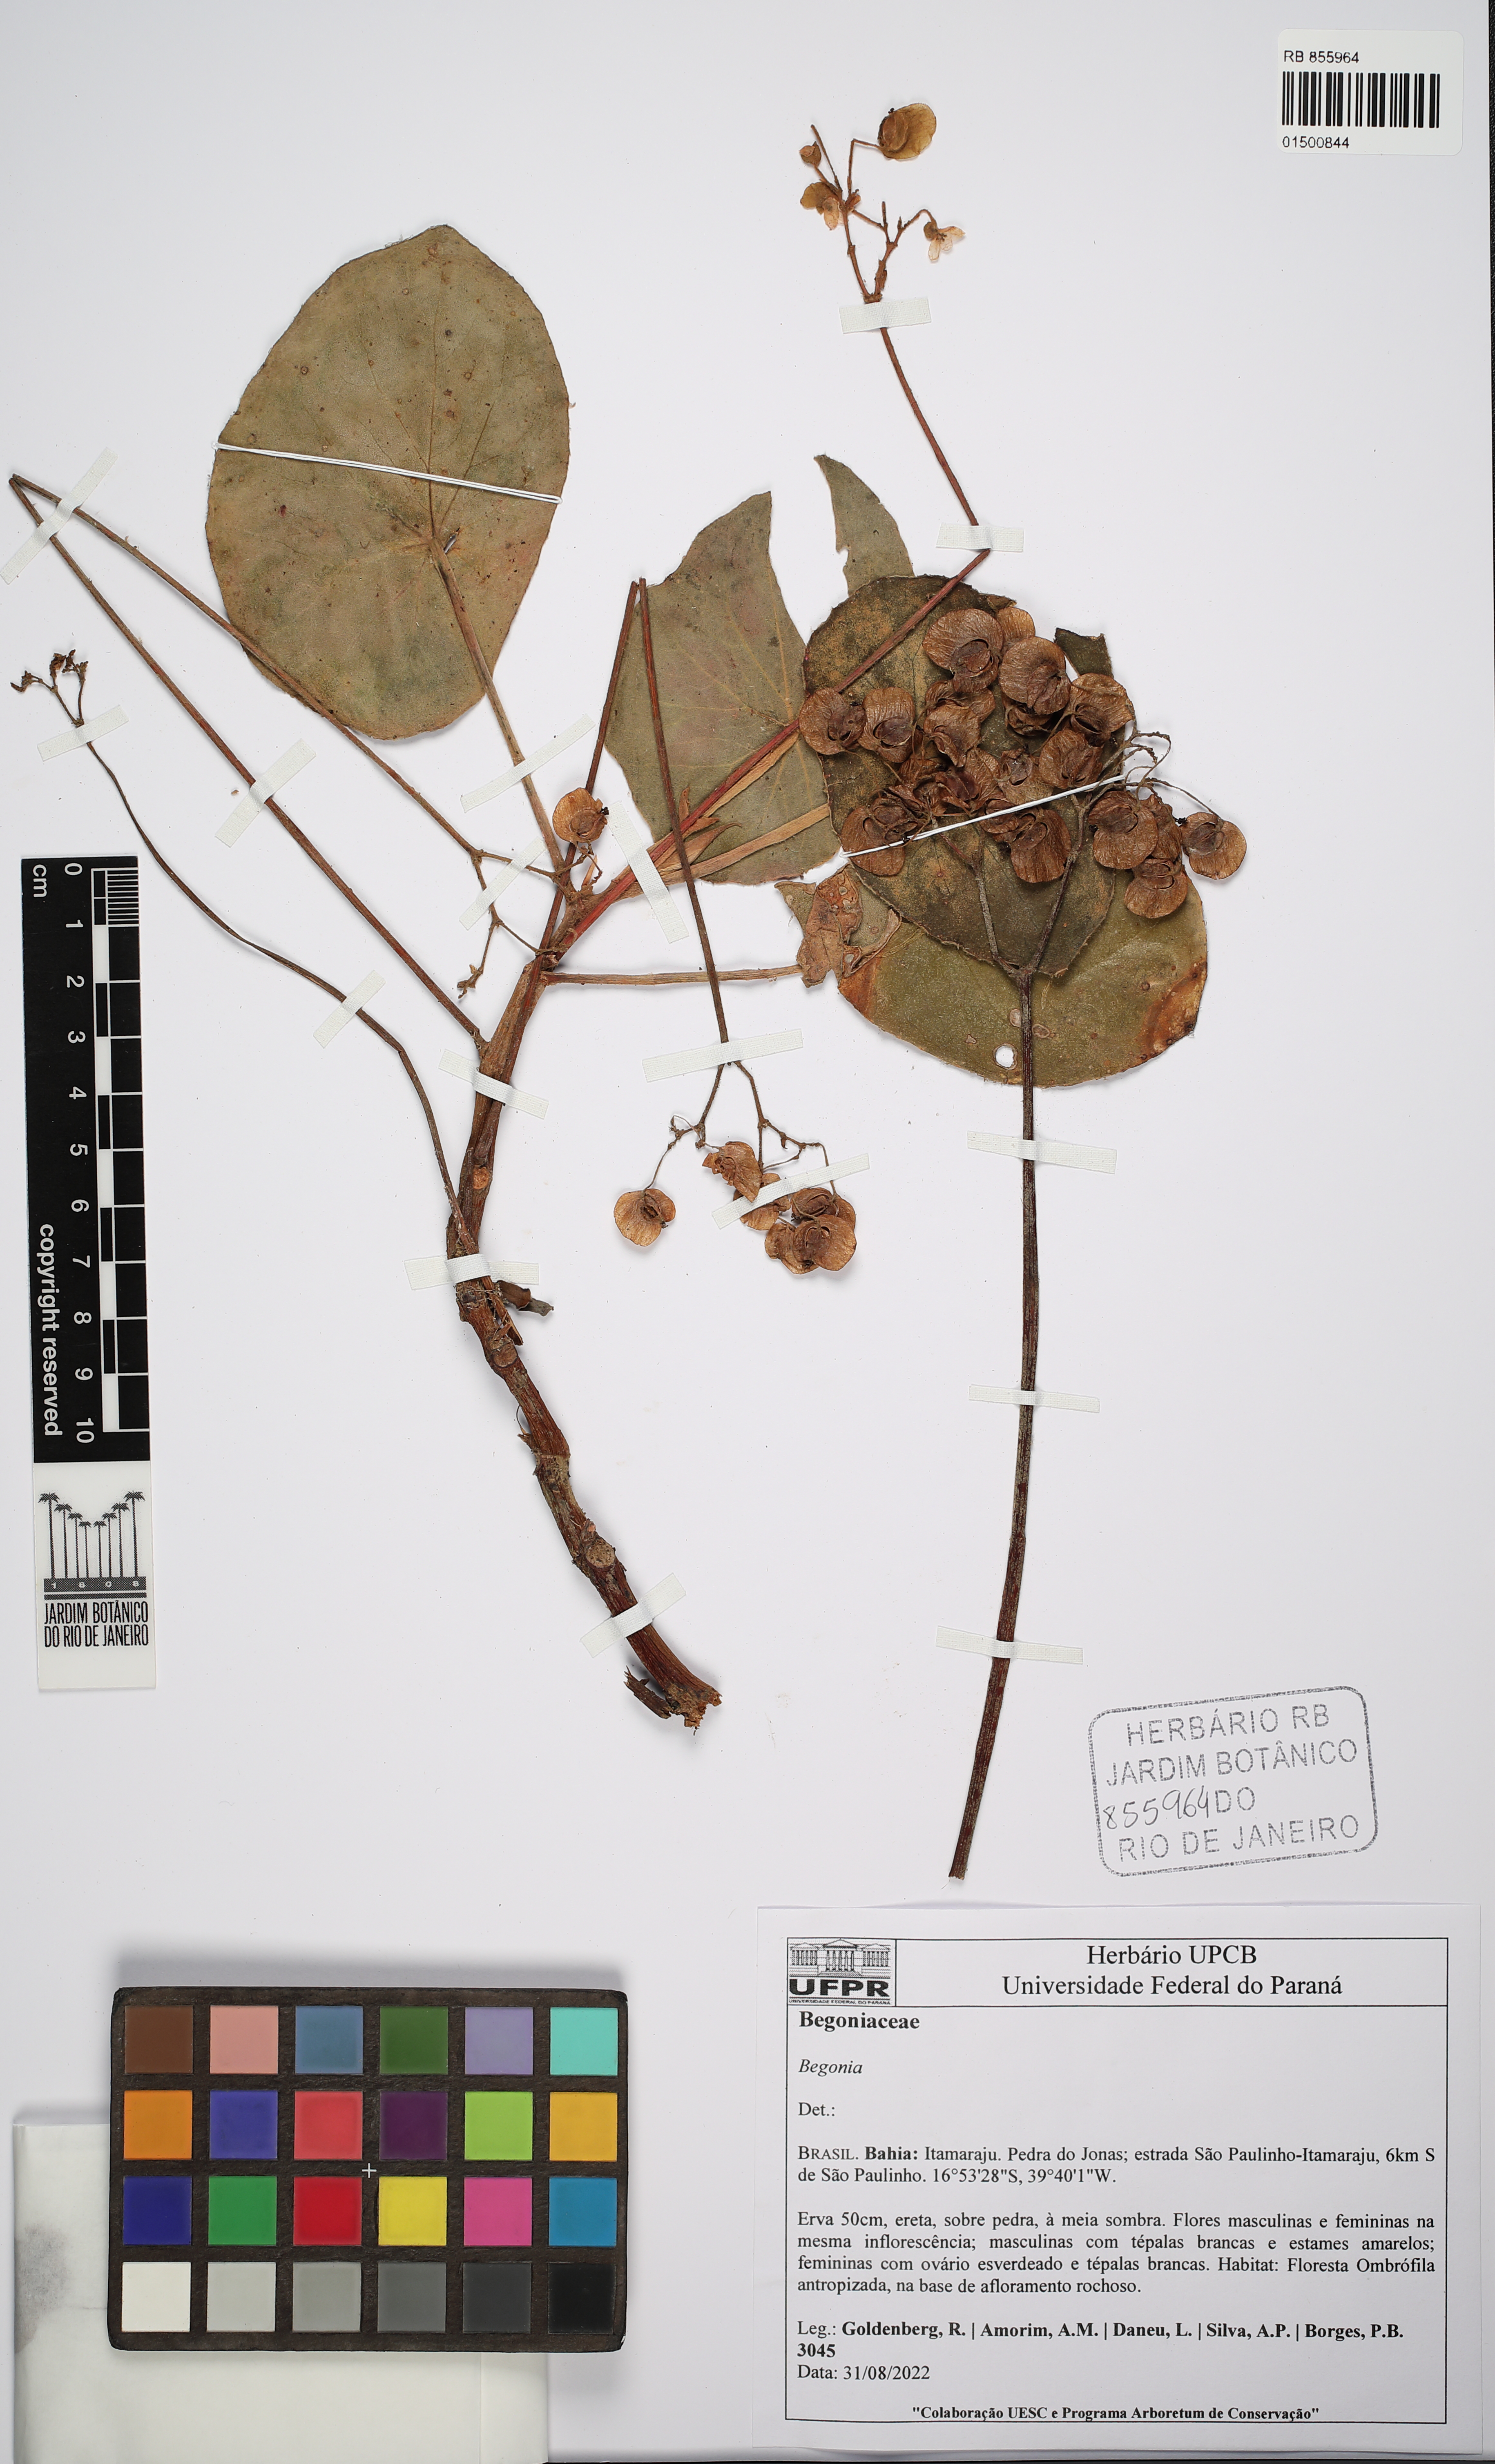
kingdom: Plantae
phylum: Tracheophyta
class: Magnoliopsida
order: Cucurbitales
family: Begoniaceae
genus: Begonia
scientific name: Begonia
